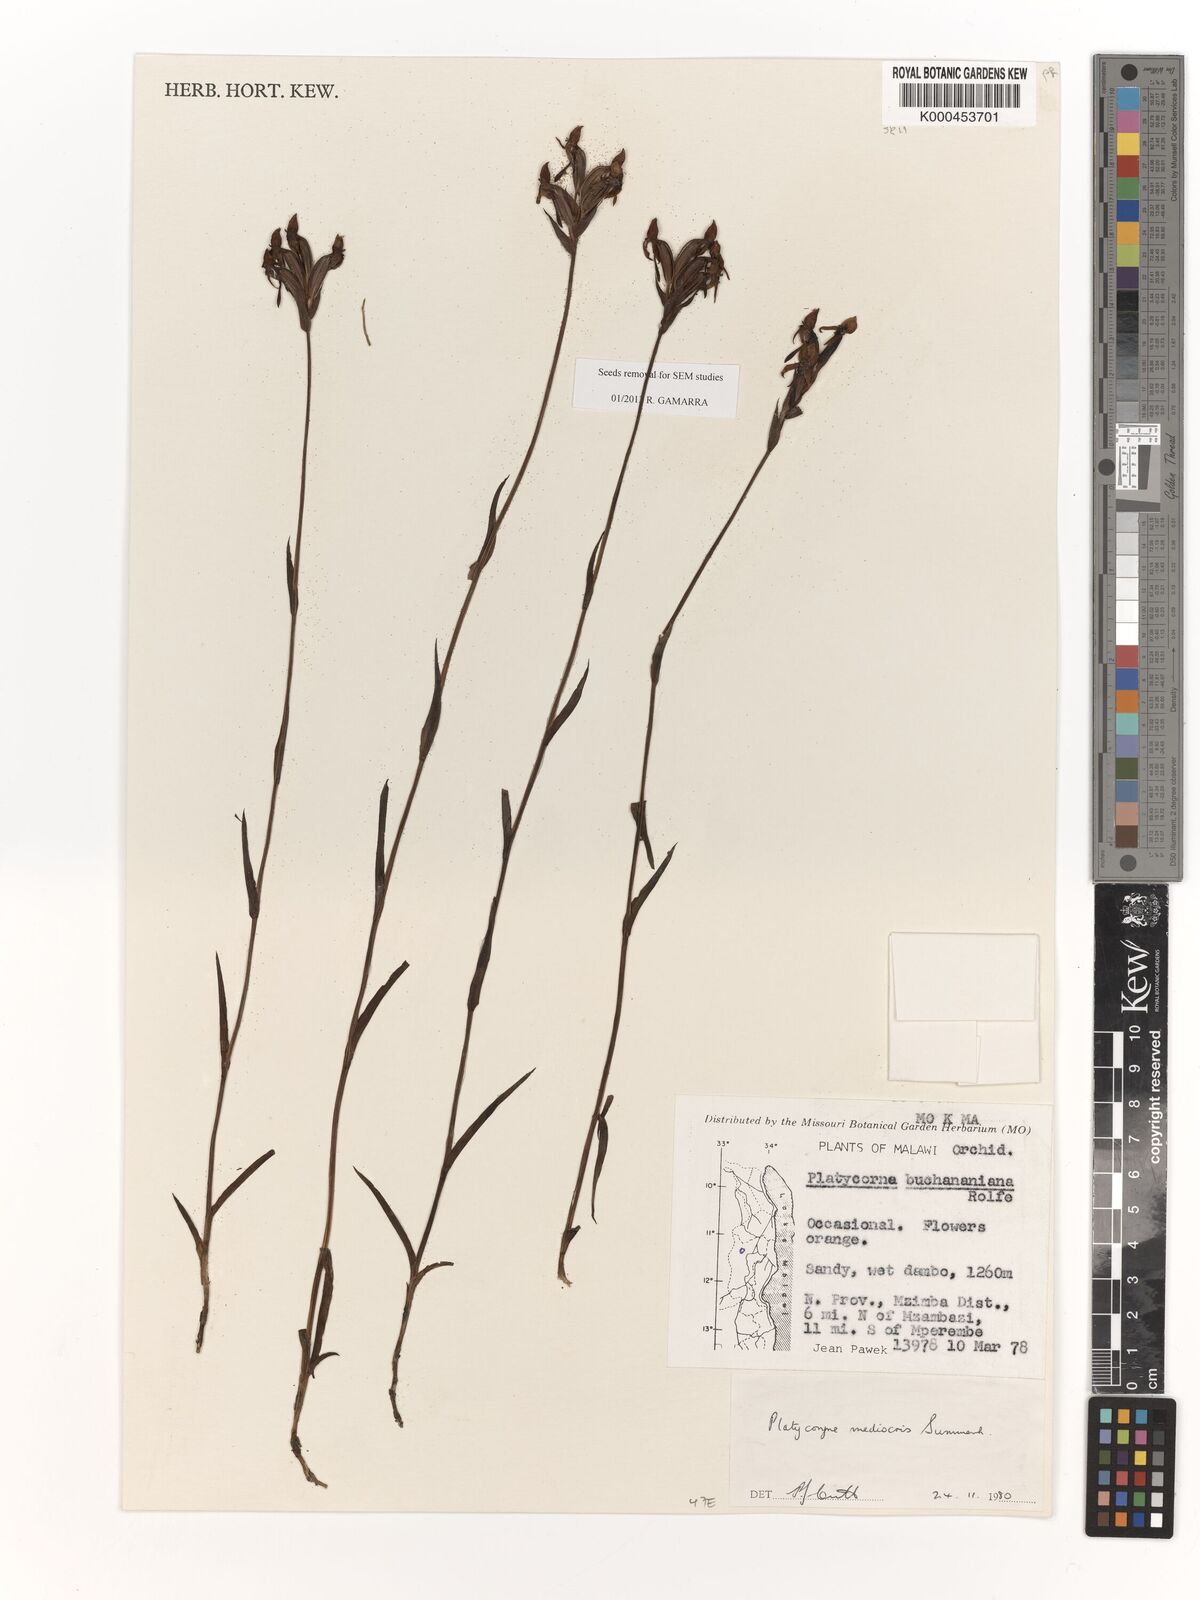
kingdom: Plantae
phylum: Tracheophyta
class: Liliopsida
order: Asparagales
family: Orchidaceae
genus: Platycoryne
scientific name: Platycoryne mediocris
